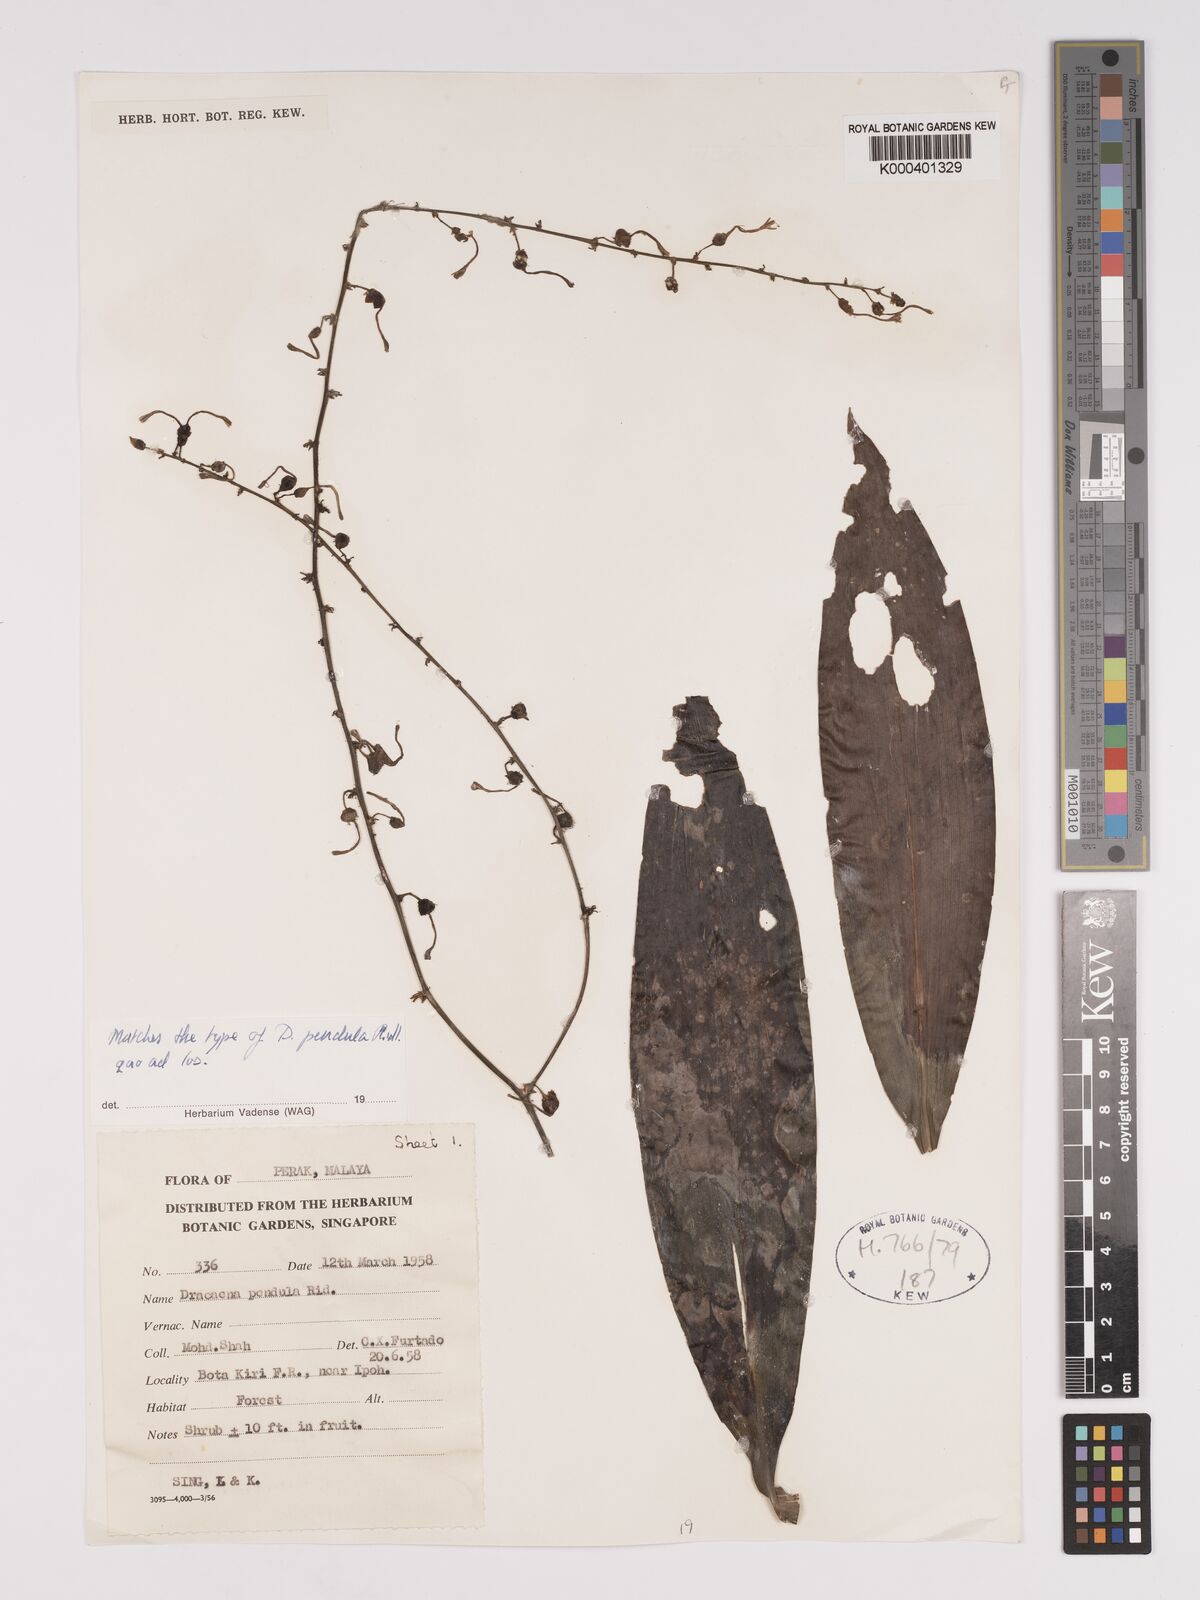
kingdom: Plantae
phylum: Tracheophyta
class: Liliopsida
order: Asparagales
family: Asparagaceae
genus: Dracaena
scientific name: Dracaena pendula
